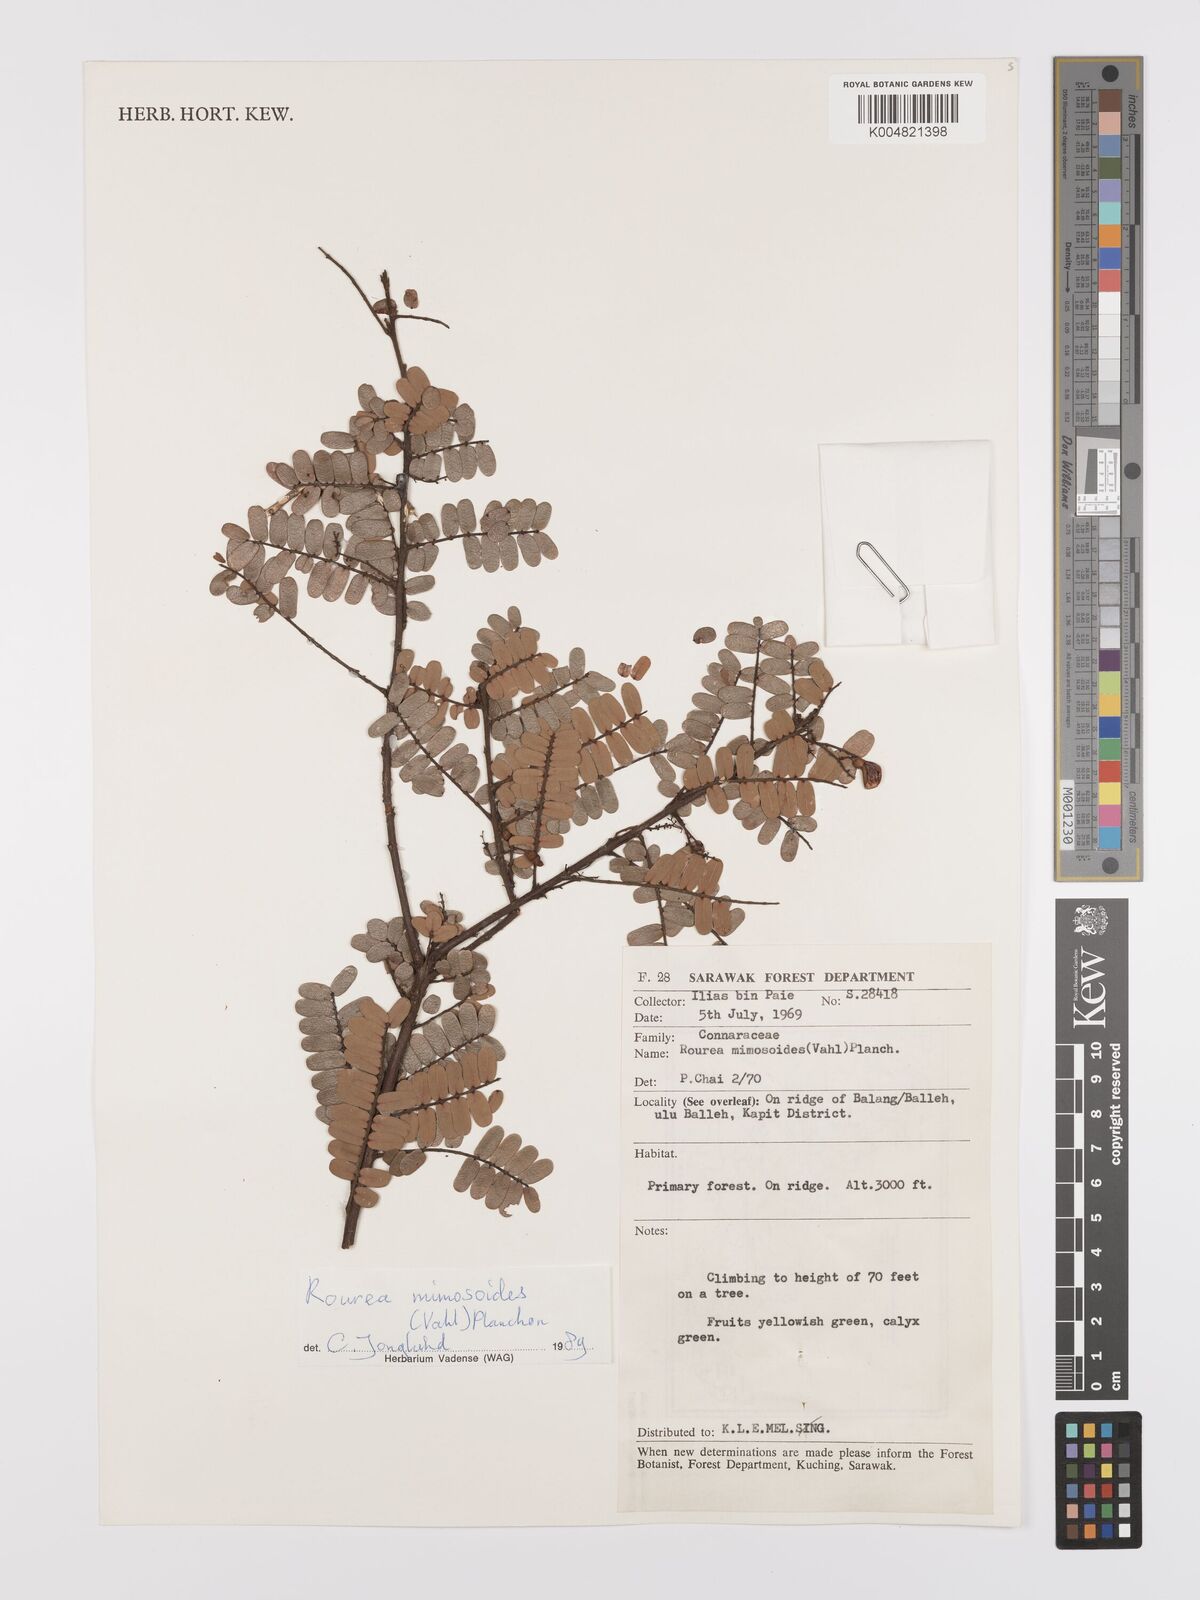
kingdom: Plantae
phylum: Tracheophyta
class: Magnoliopsida
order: Oxalidales
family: Connaraceae
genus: Rourea
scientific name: Rourea mimosoides
